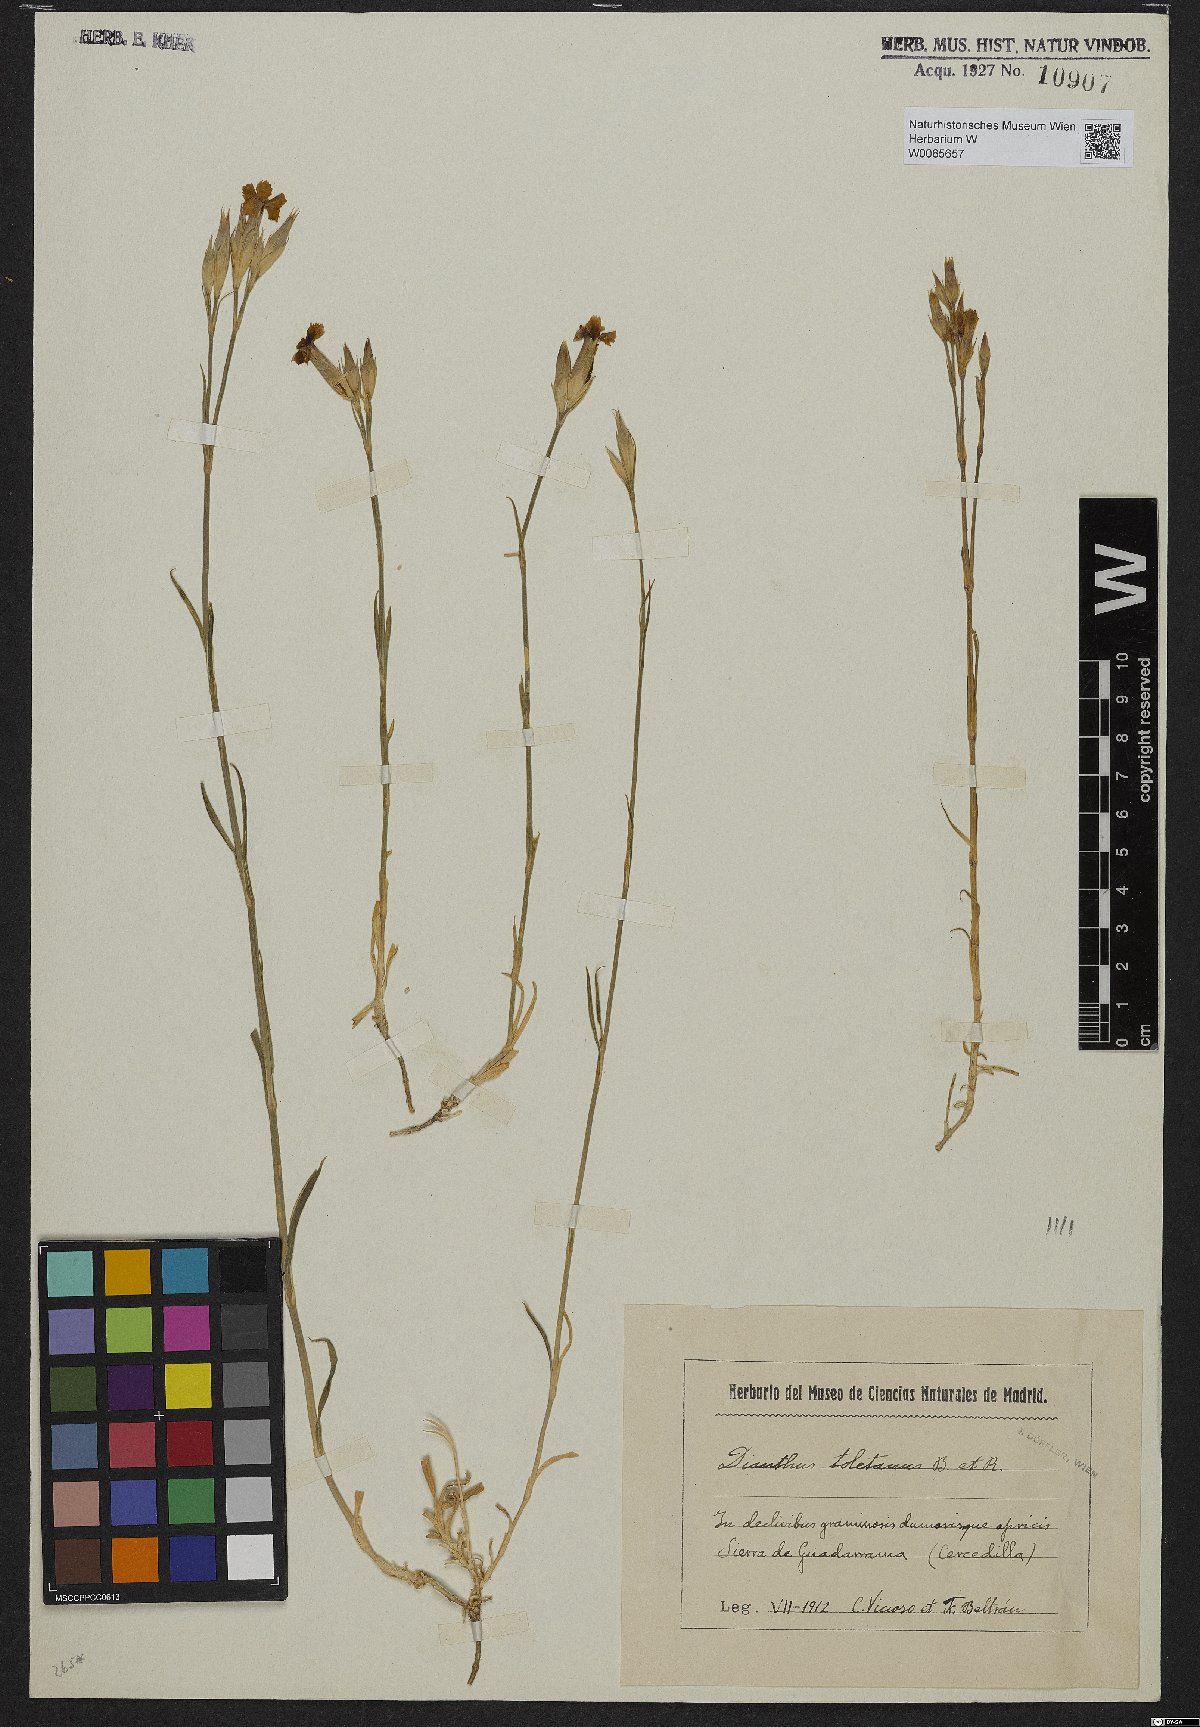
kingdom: Plantae
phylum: Tracheophyta
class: Magnoliopsida
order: Caryophyllales
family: Caryophyllaceae
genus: Dianthus
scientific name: Dianthus toletanus
